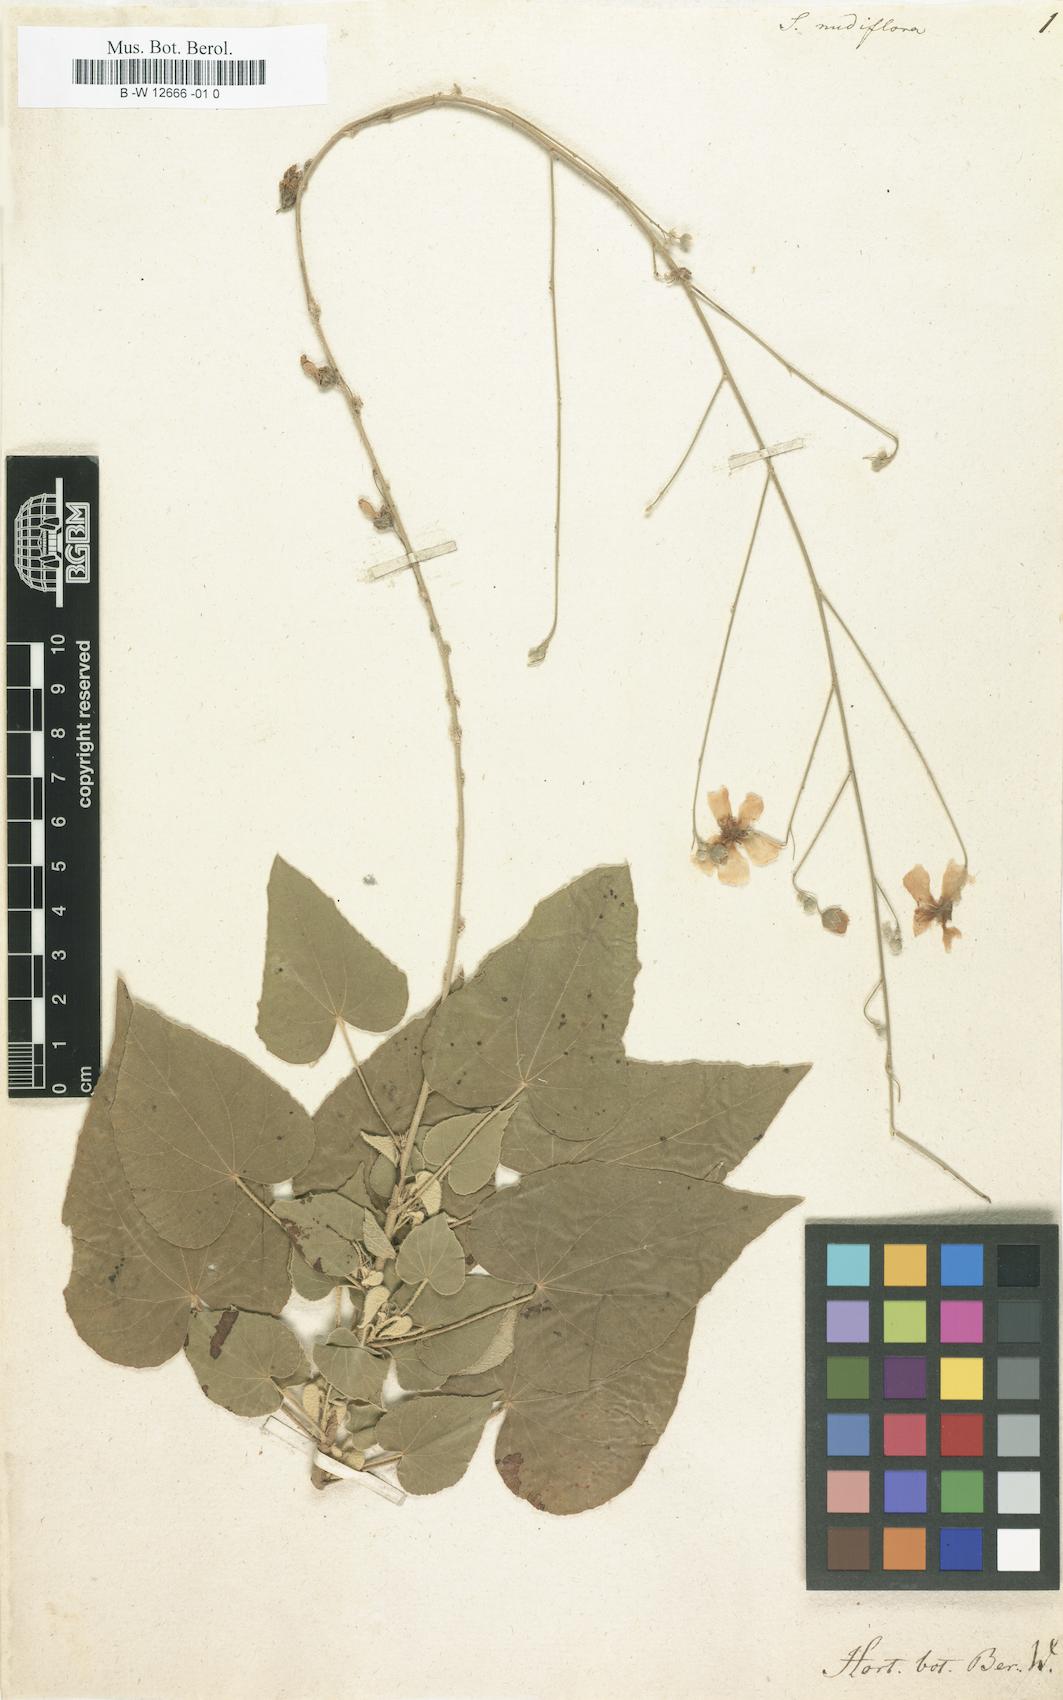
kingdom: Plantae
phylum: Tracheophyta
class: Magnoliopsida
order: Malvales
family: Malvaceae
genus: Wissadula
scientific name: Wissadula stellata
